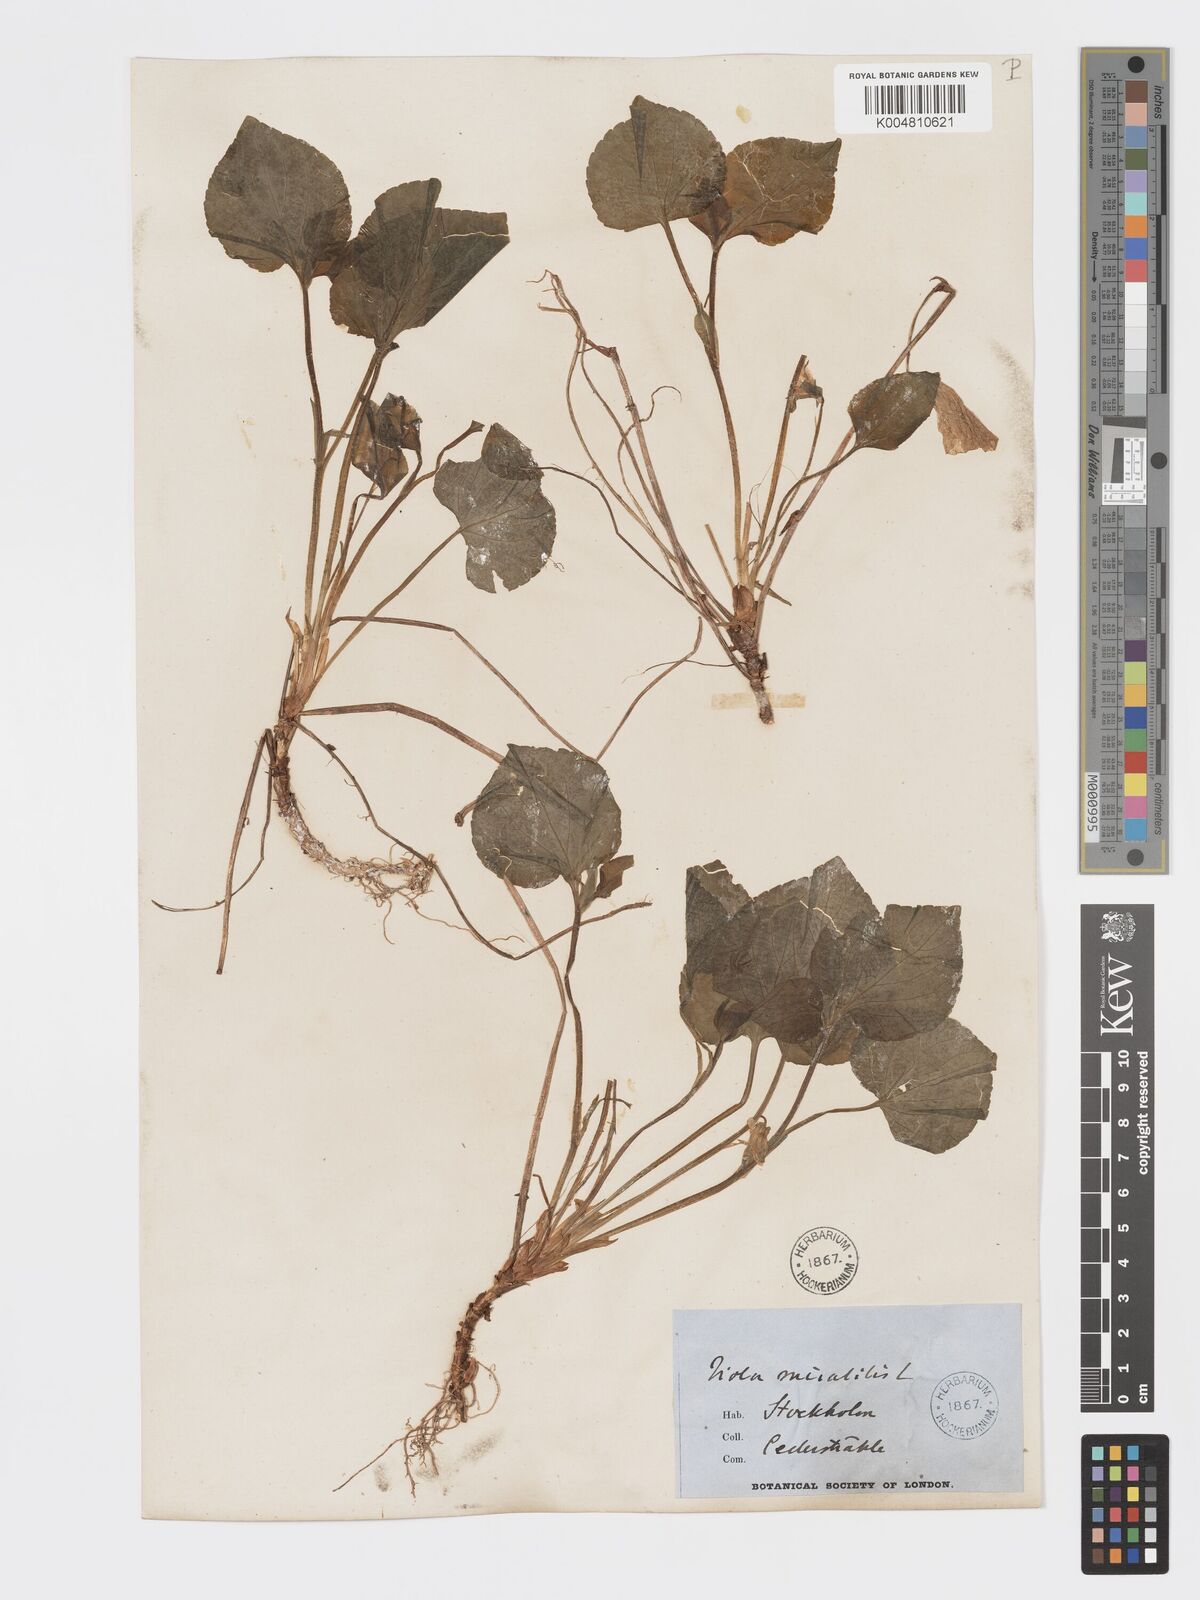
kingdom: Plantae
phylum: Tracheophyta
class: Magnoliopsida
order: Malpighiales
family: Violaceae
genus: Viola
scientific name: Viola mirabilis
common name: Wonder violet
